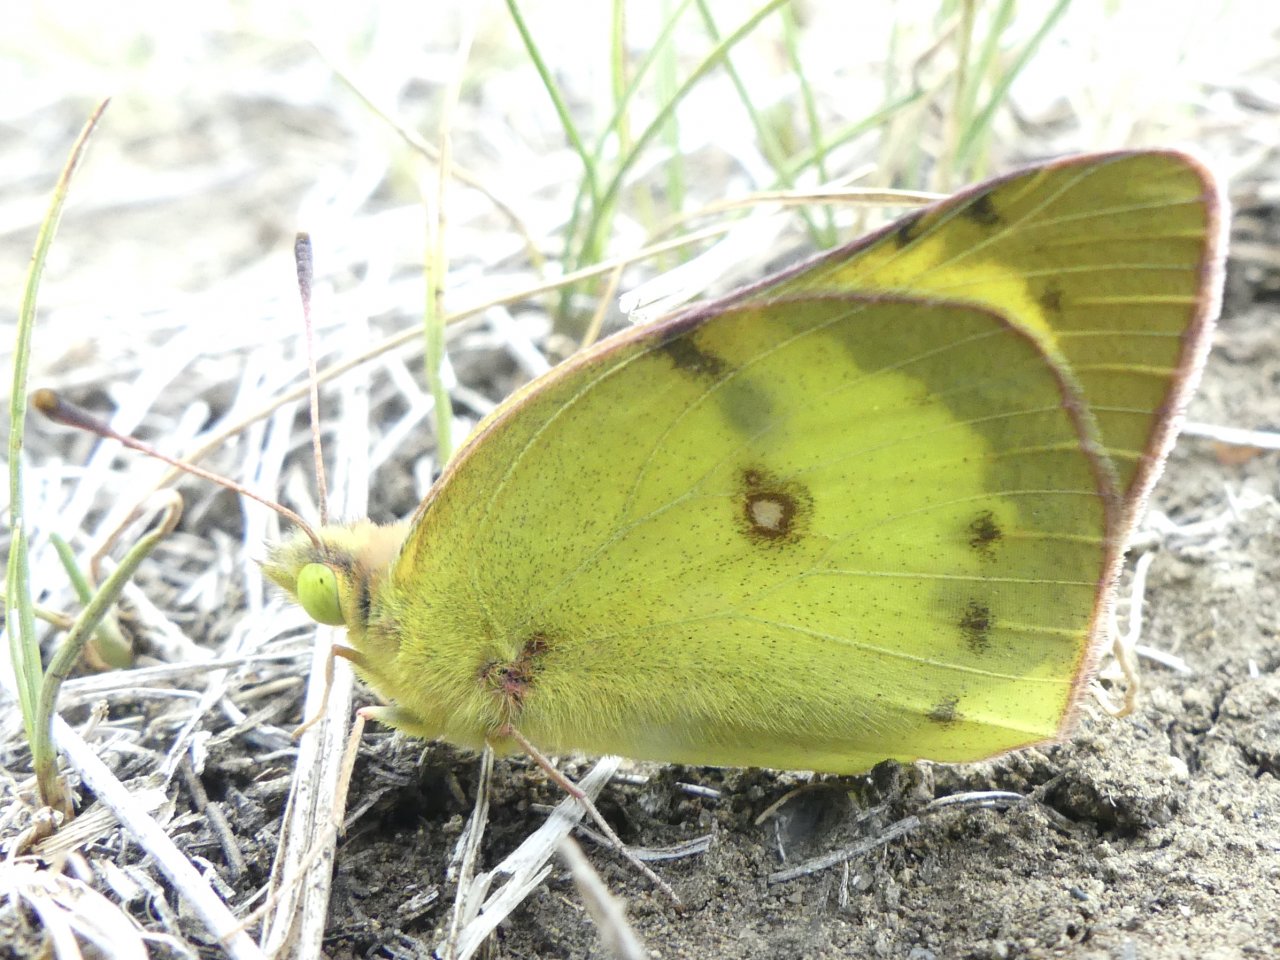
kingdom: Animalia
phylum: Arthropoda
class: Insecta
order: Lepidoptera
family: Pieridae
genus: Colias
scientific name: Colias philodice
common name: Clouded Sulphur
